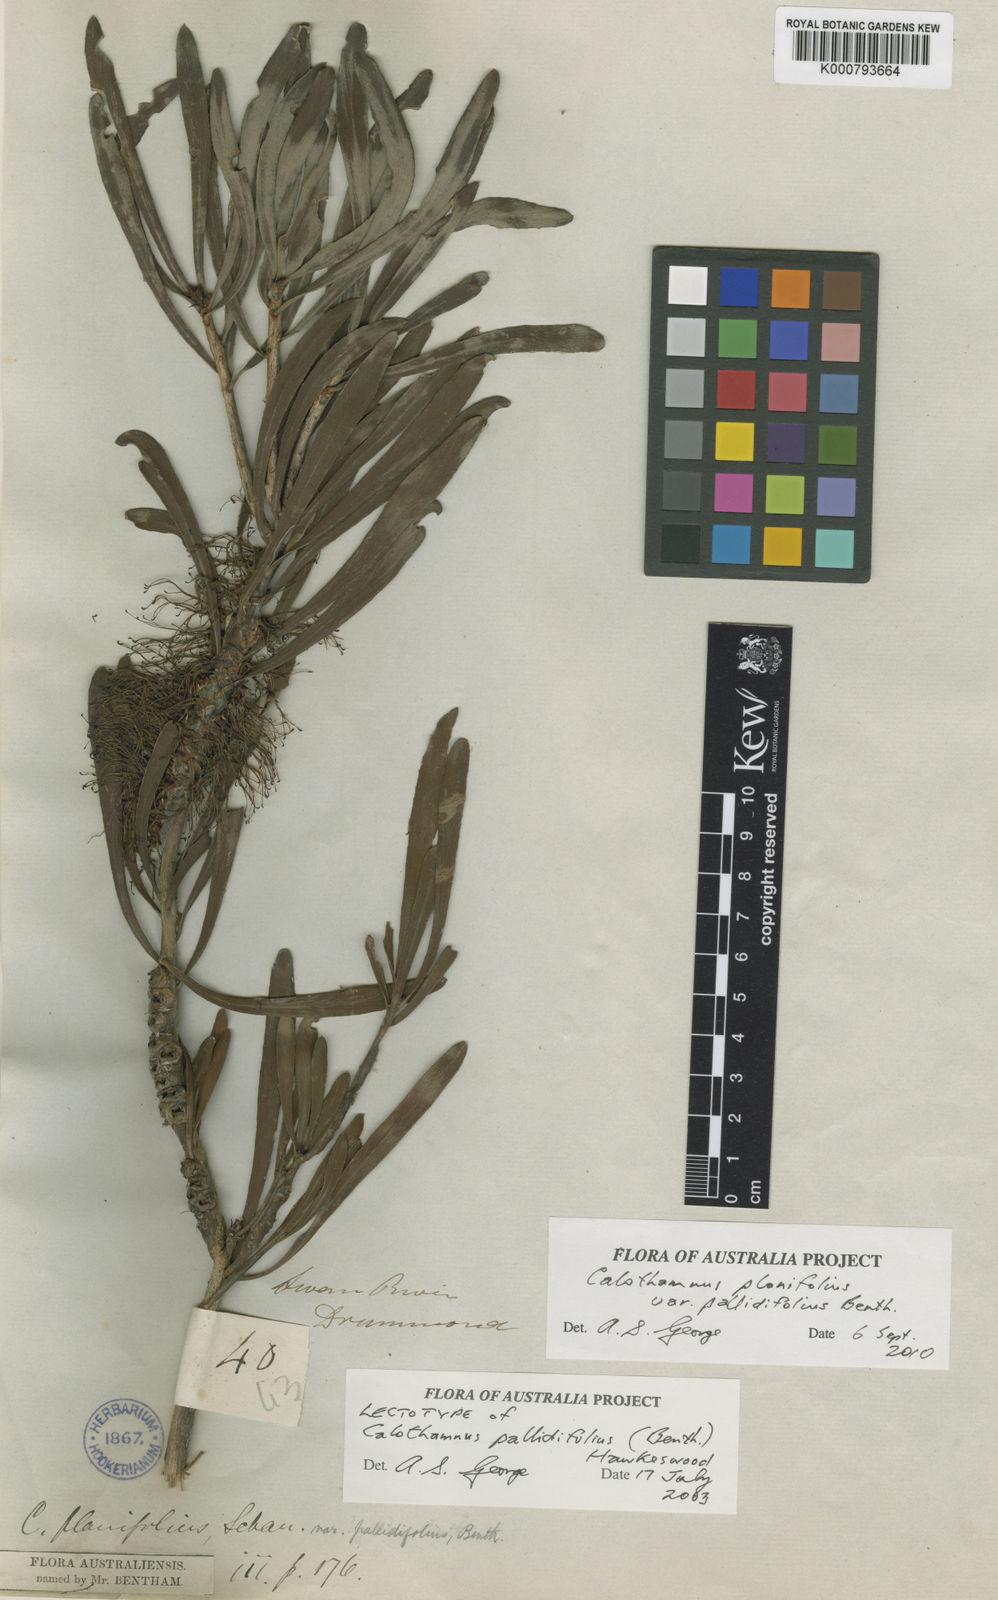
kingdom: Plantae
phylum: Tracheophyta
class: Magnoliopsida
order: Myrtales
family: Myrtaceae
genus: Melaleuca
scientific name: Melaleuca planifolia
